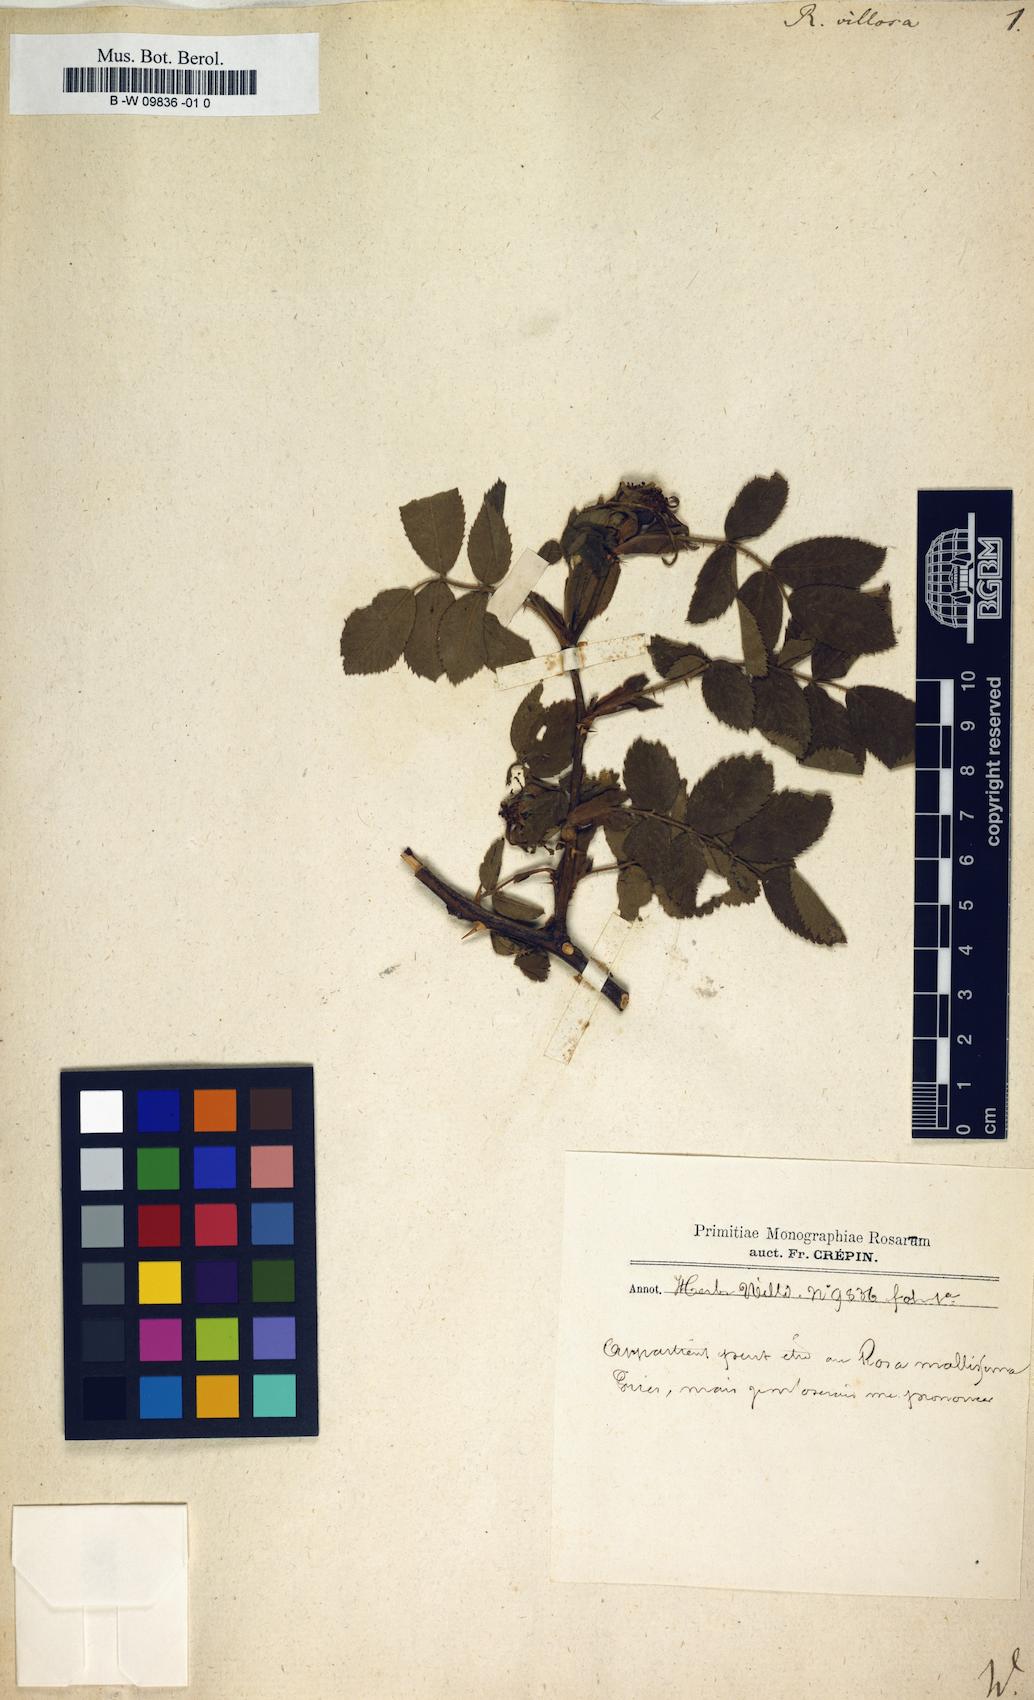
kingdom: Plantae
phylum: Tracheophyta
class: Magnoliopsida
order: Rosales
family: Rosaceae
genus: Rosa
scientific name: Rosa villosa
